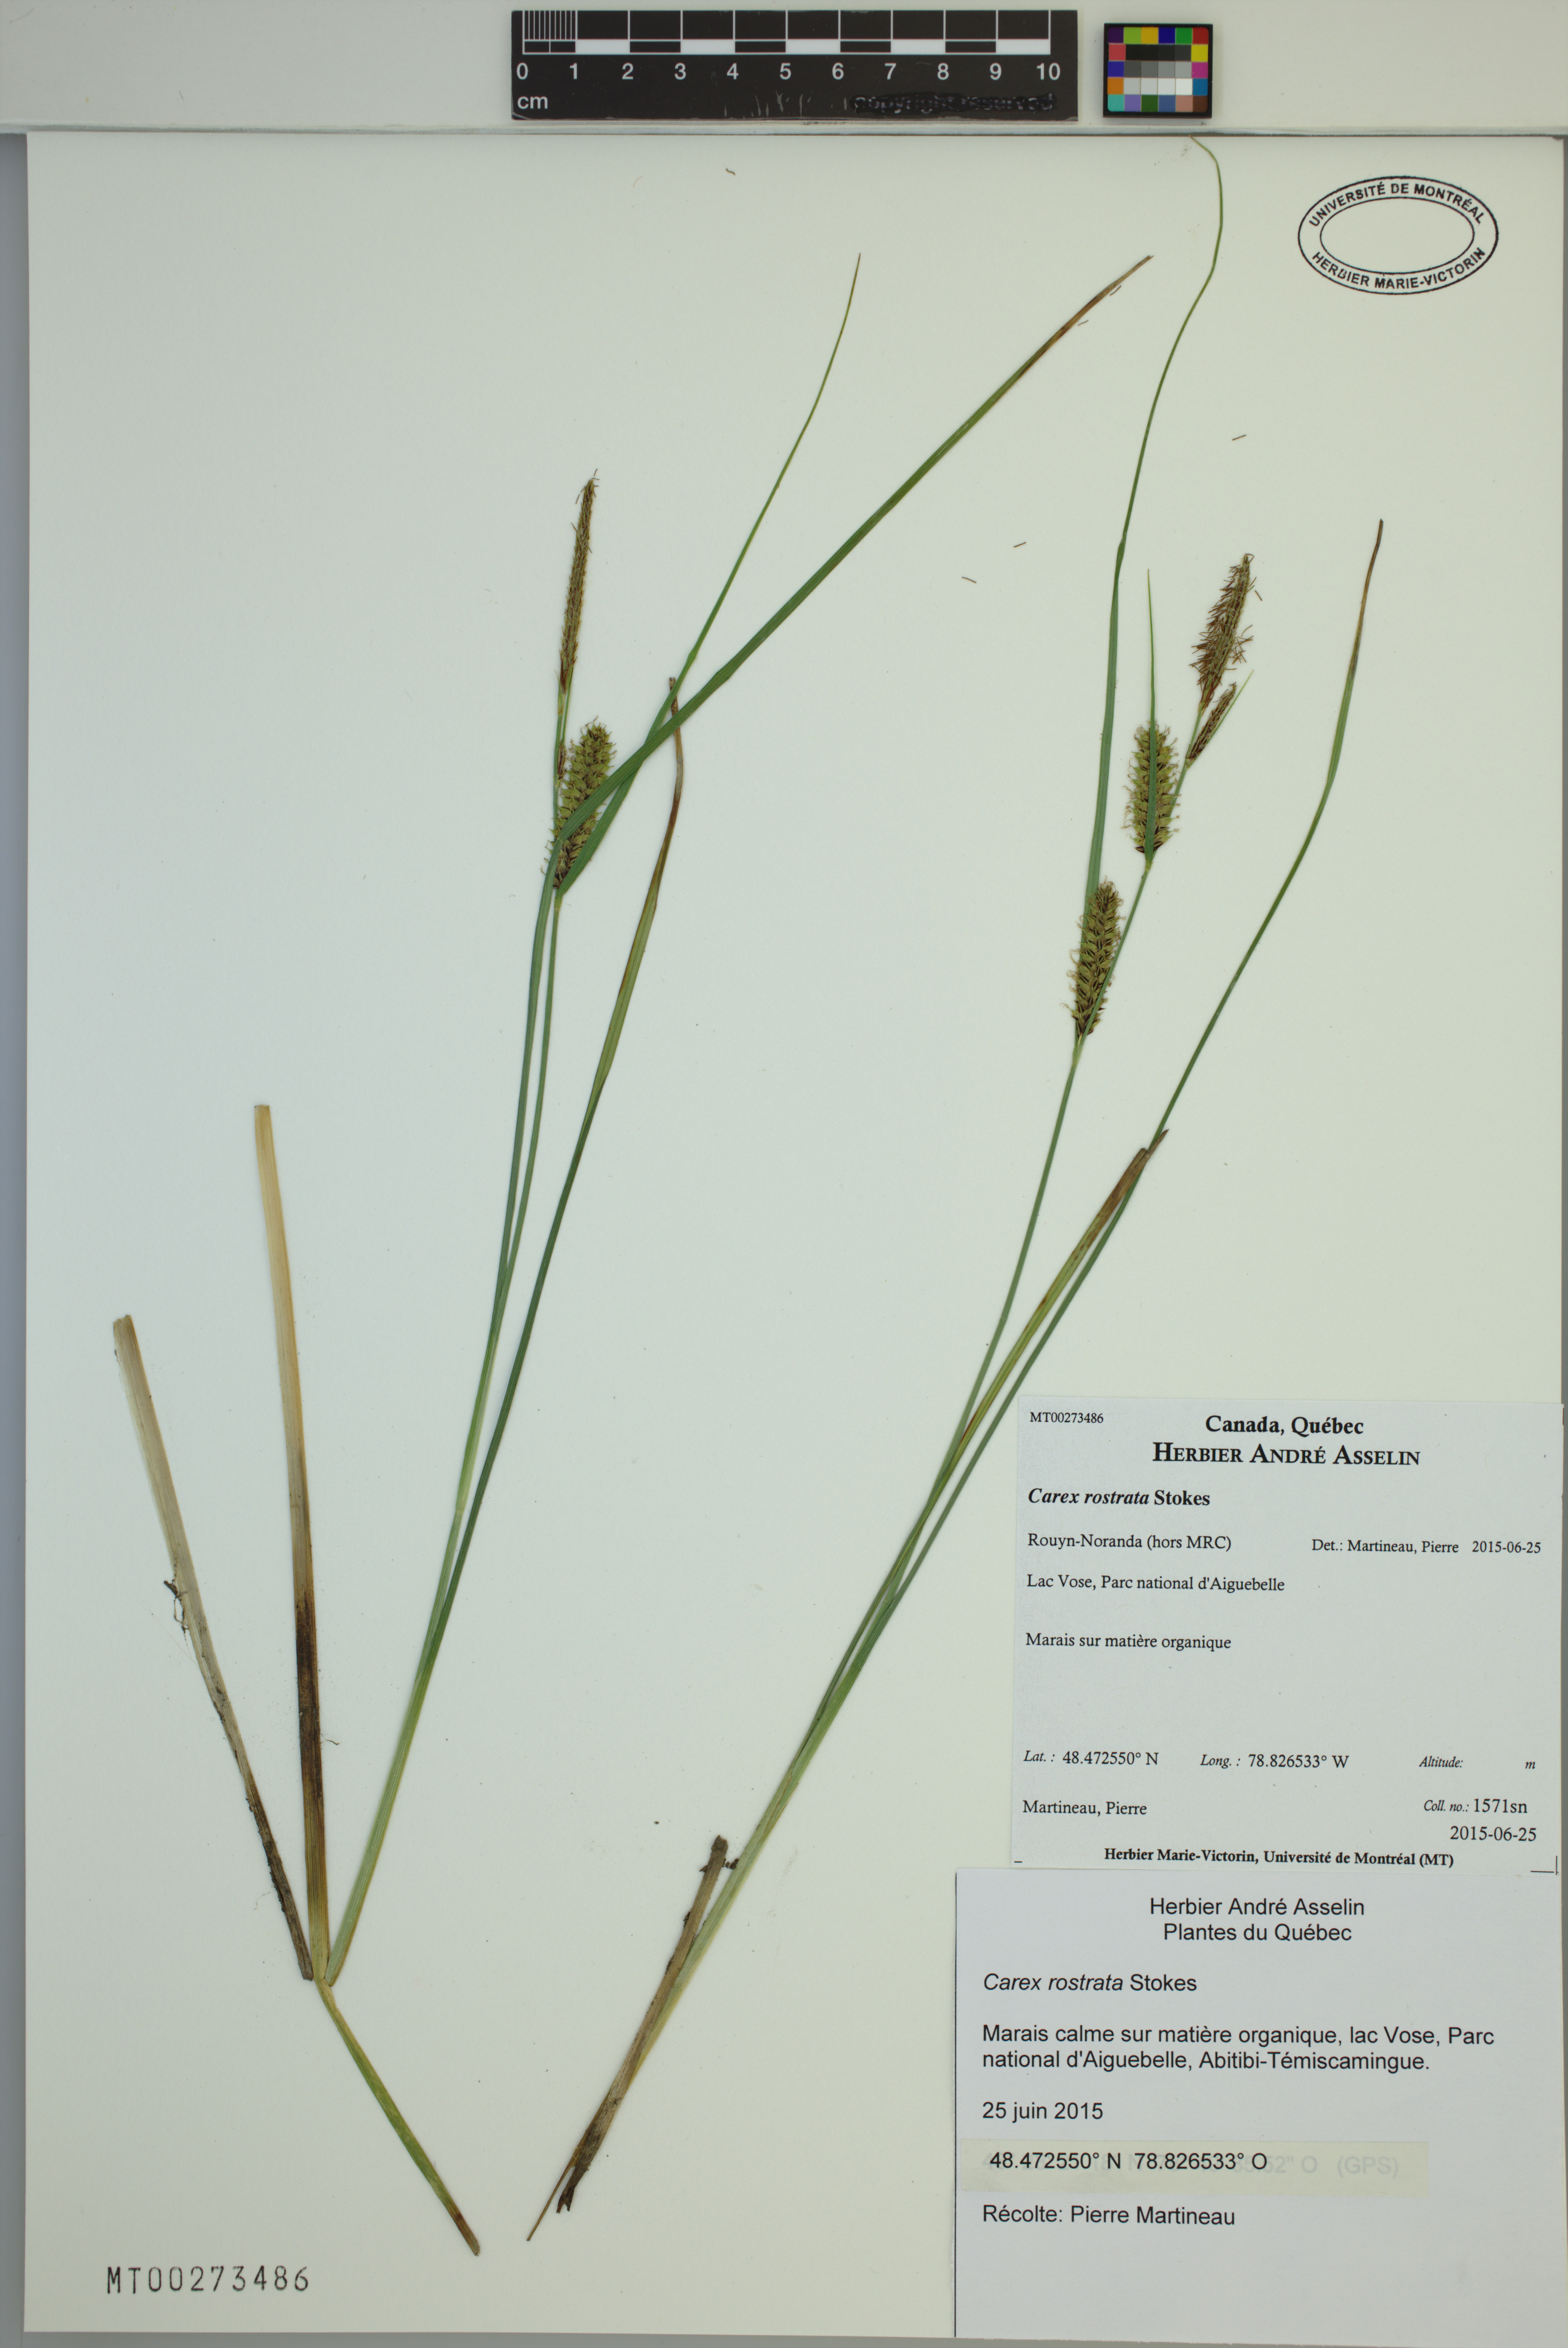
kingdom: Plantae
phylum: Tracheophyta
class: Liliopsida
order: Poales
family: Cyperaceae
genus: Carex
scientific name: Carex rostrata
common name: Bottle sedge
